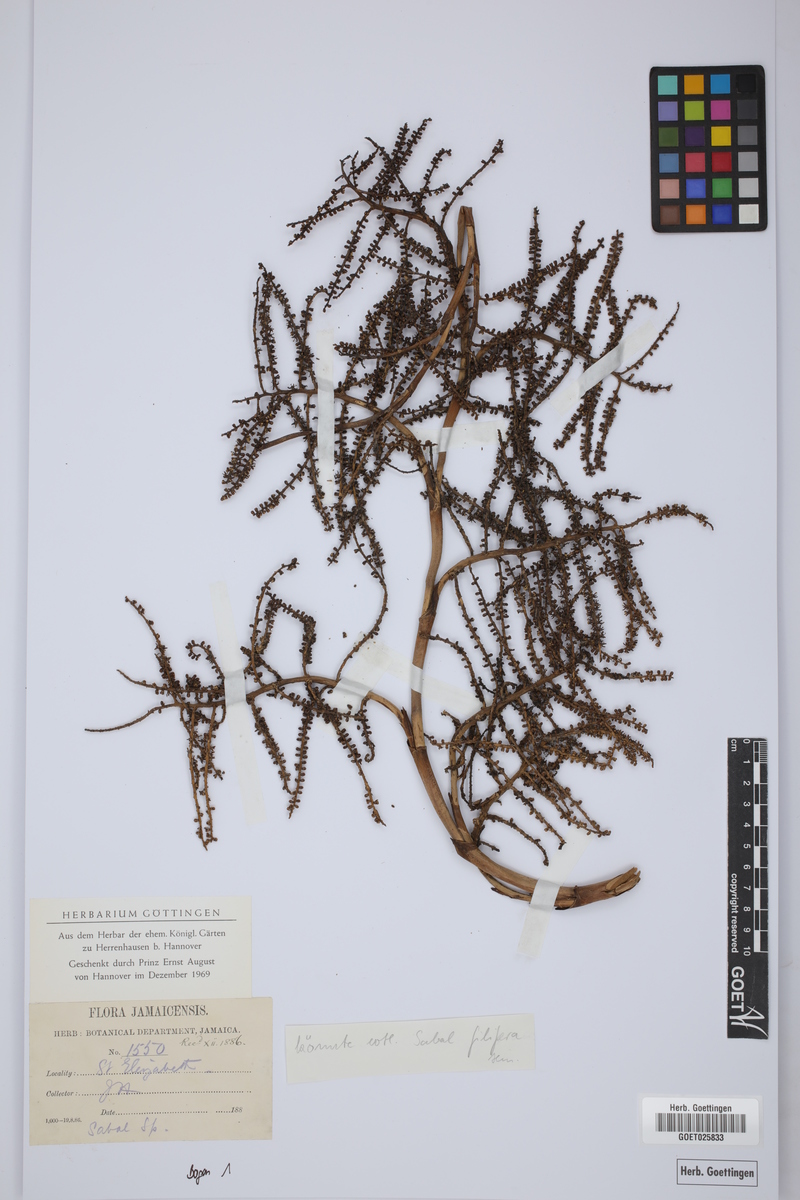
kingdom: Plantae
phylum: Tracheophyta
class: Liliopsida
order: Arecales
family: Arecaceae
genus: Sabal
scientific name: Sabal filifera
